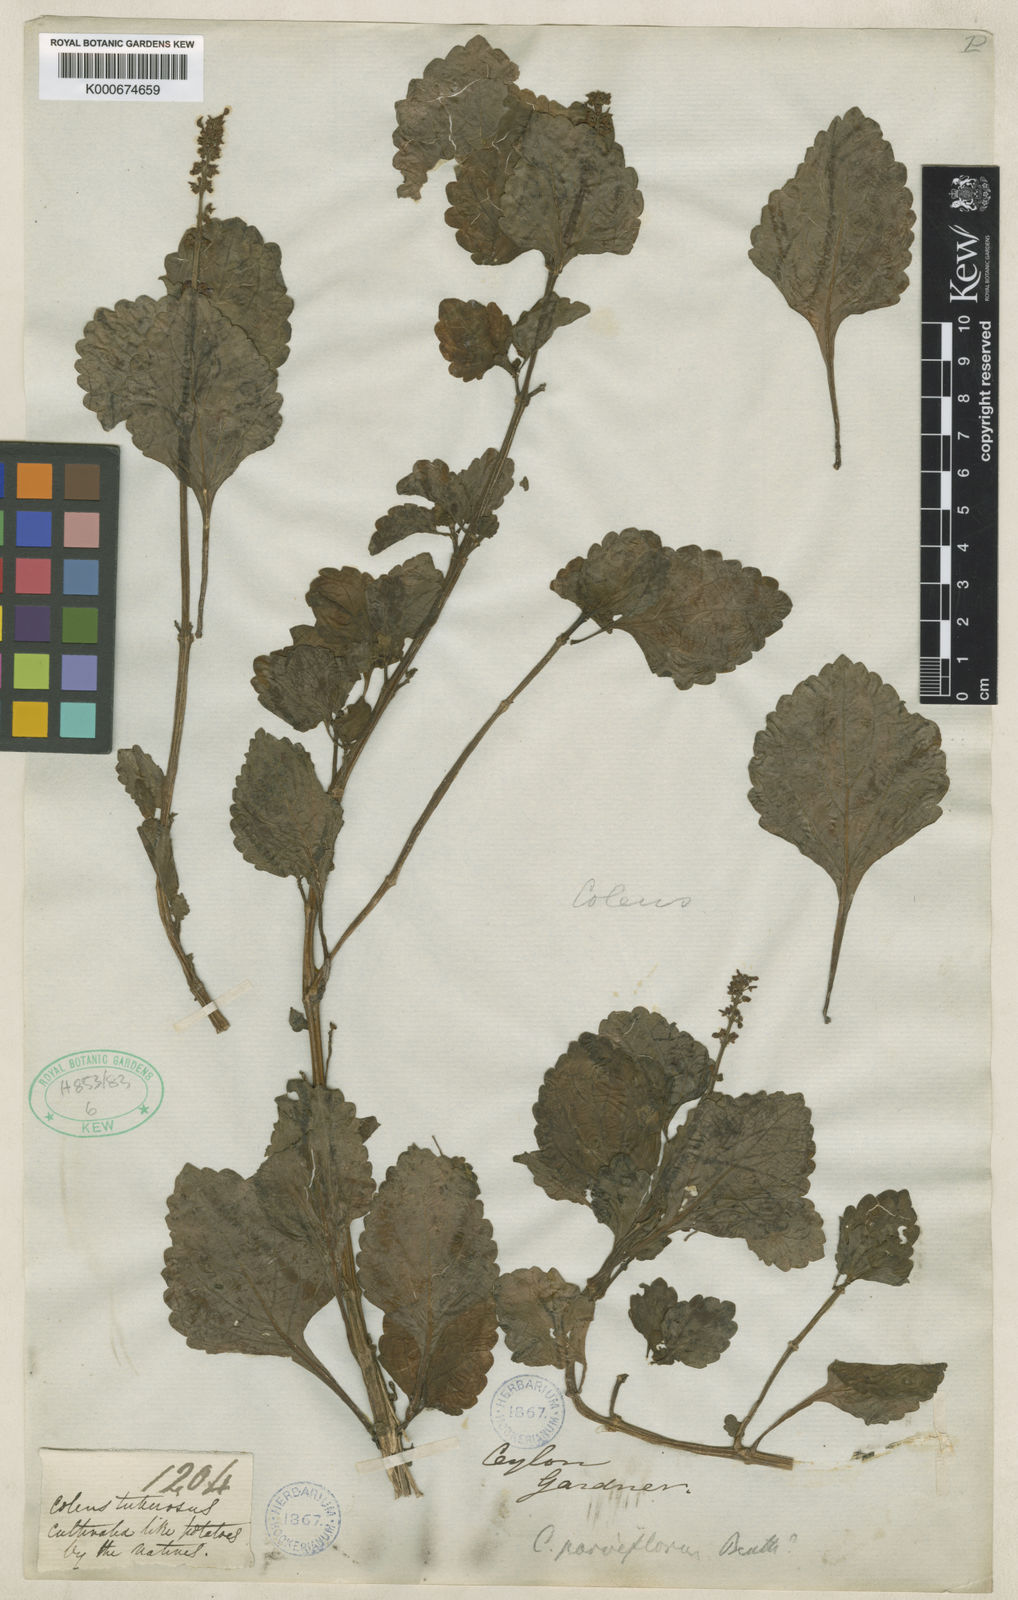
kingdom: Plantae
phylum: Tracheophyta
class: Magnoliopsida
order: Lamiales
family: Lamiaceae
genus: Coleus
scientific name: Coleus rotundifolius
